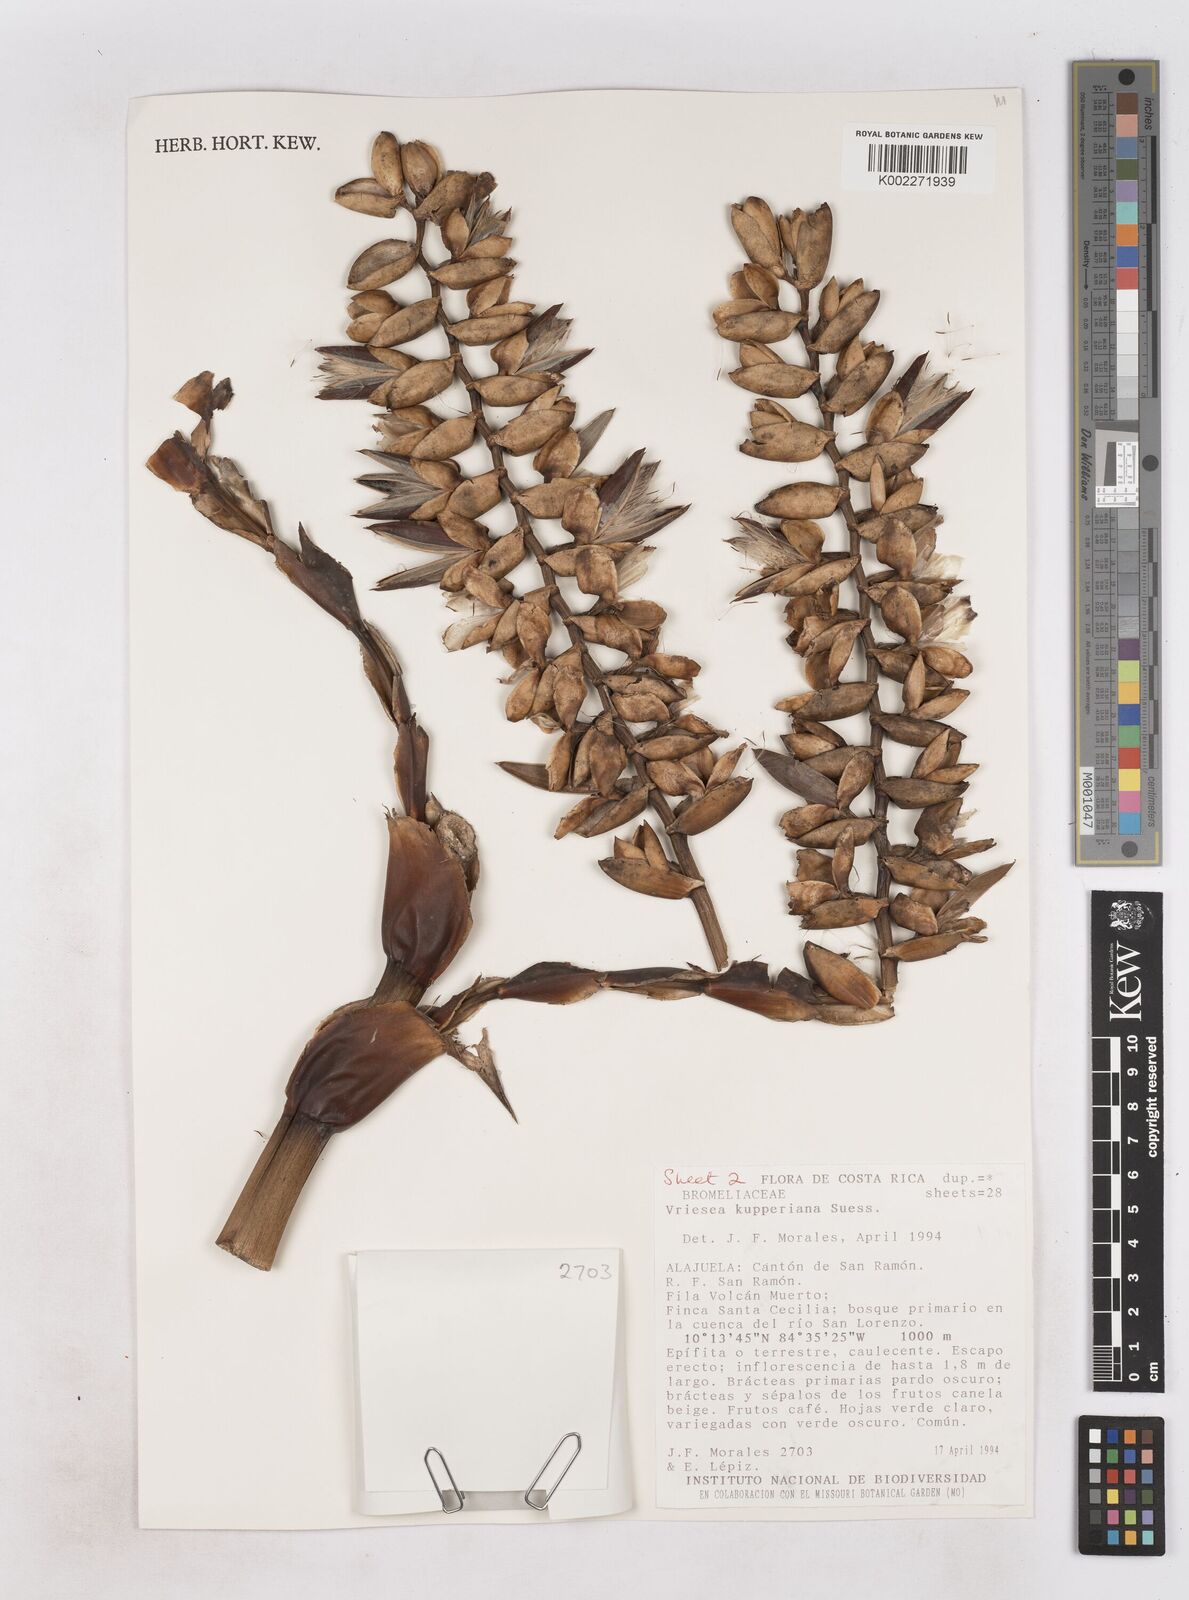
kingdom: Plantae
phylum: Tracheophyta
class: Liliopsida
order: Poales
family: Bromeliaceae
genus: Werauhia
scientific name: Werauhia kupperiana
